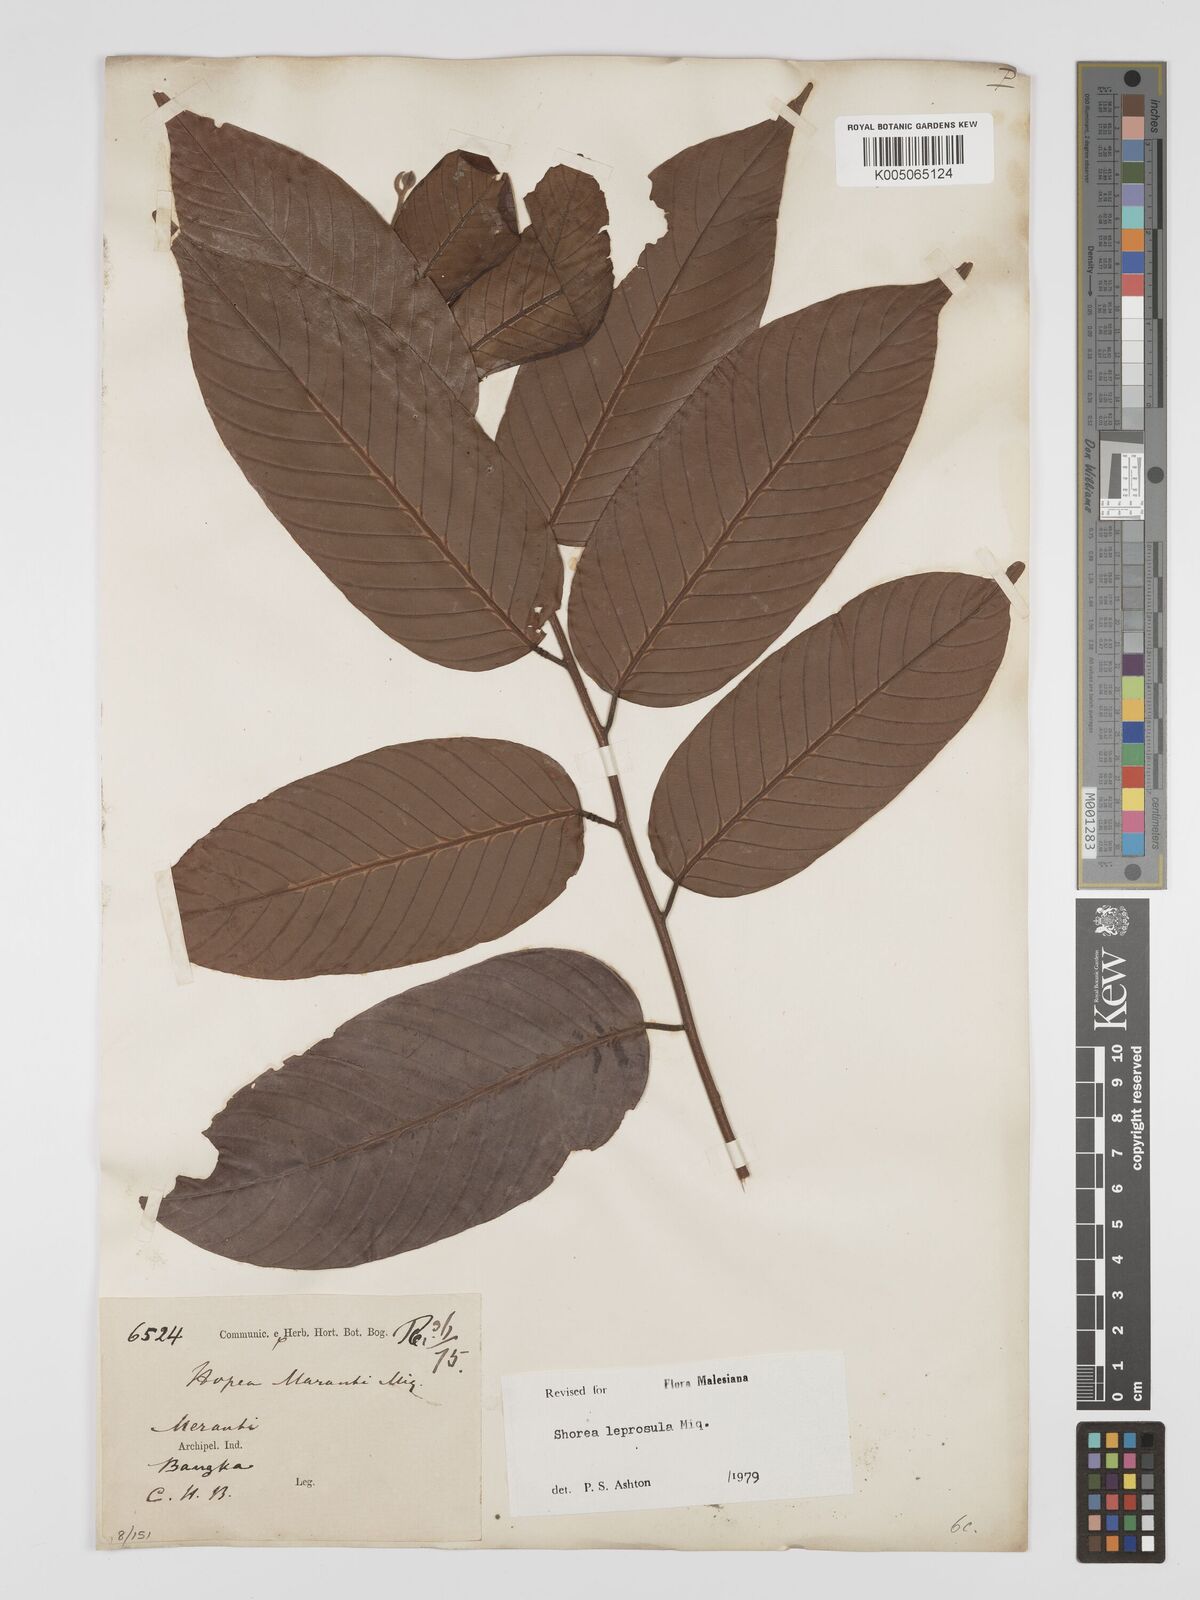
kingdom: Plantae
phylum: Tracheophyta
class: Magnoliopsida
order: Malvales
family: Dipterocarpaceae
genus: Shorea
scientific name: Shorea leprosula
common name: Light red meranti
